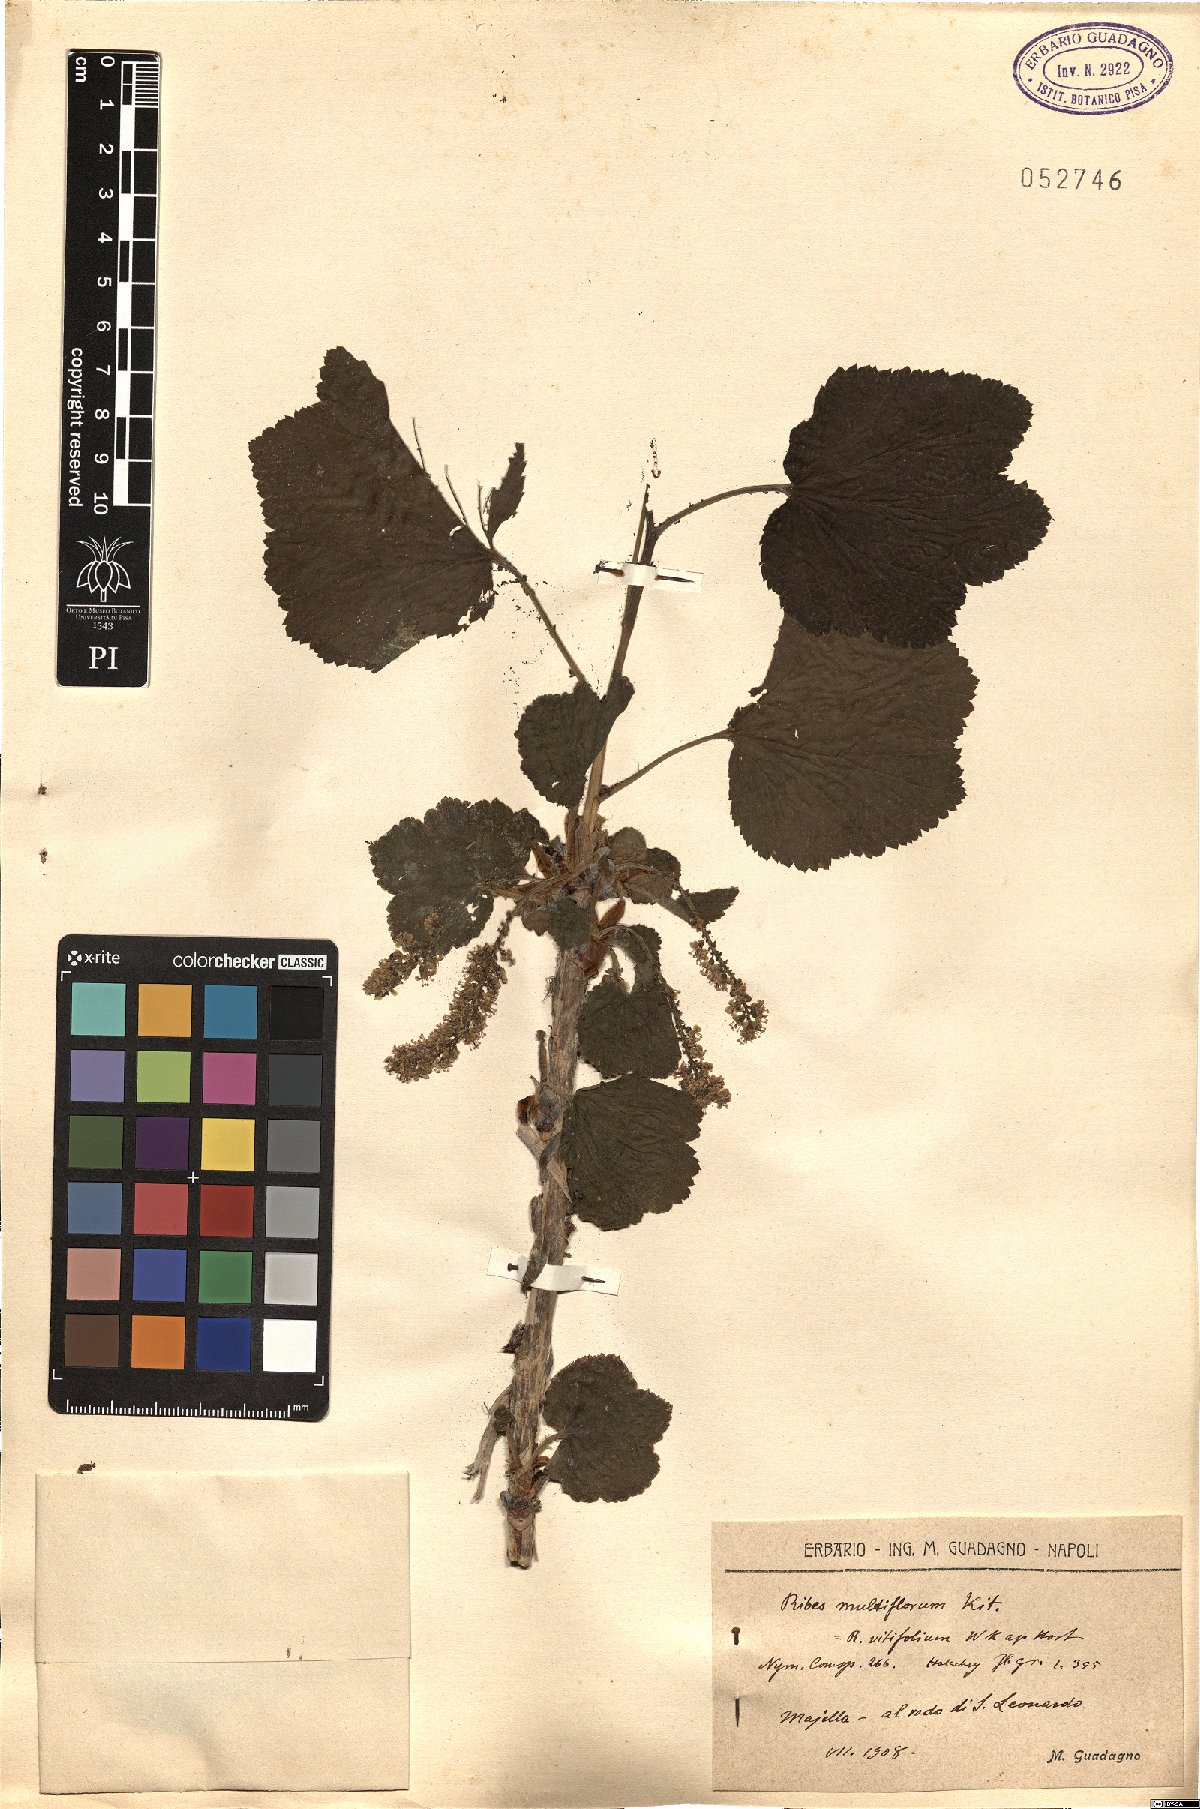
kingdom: Plantae
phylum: Tracheophyta
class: Magnoliopsida
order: Saxifragales
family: Grossulariaceae
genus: Ribes
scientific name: Ribes multiflorum
